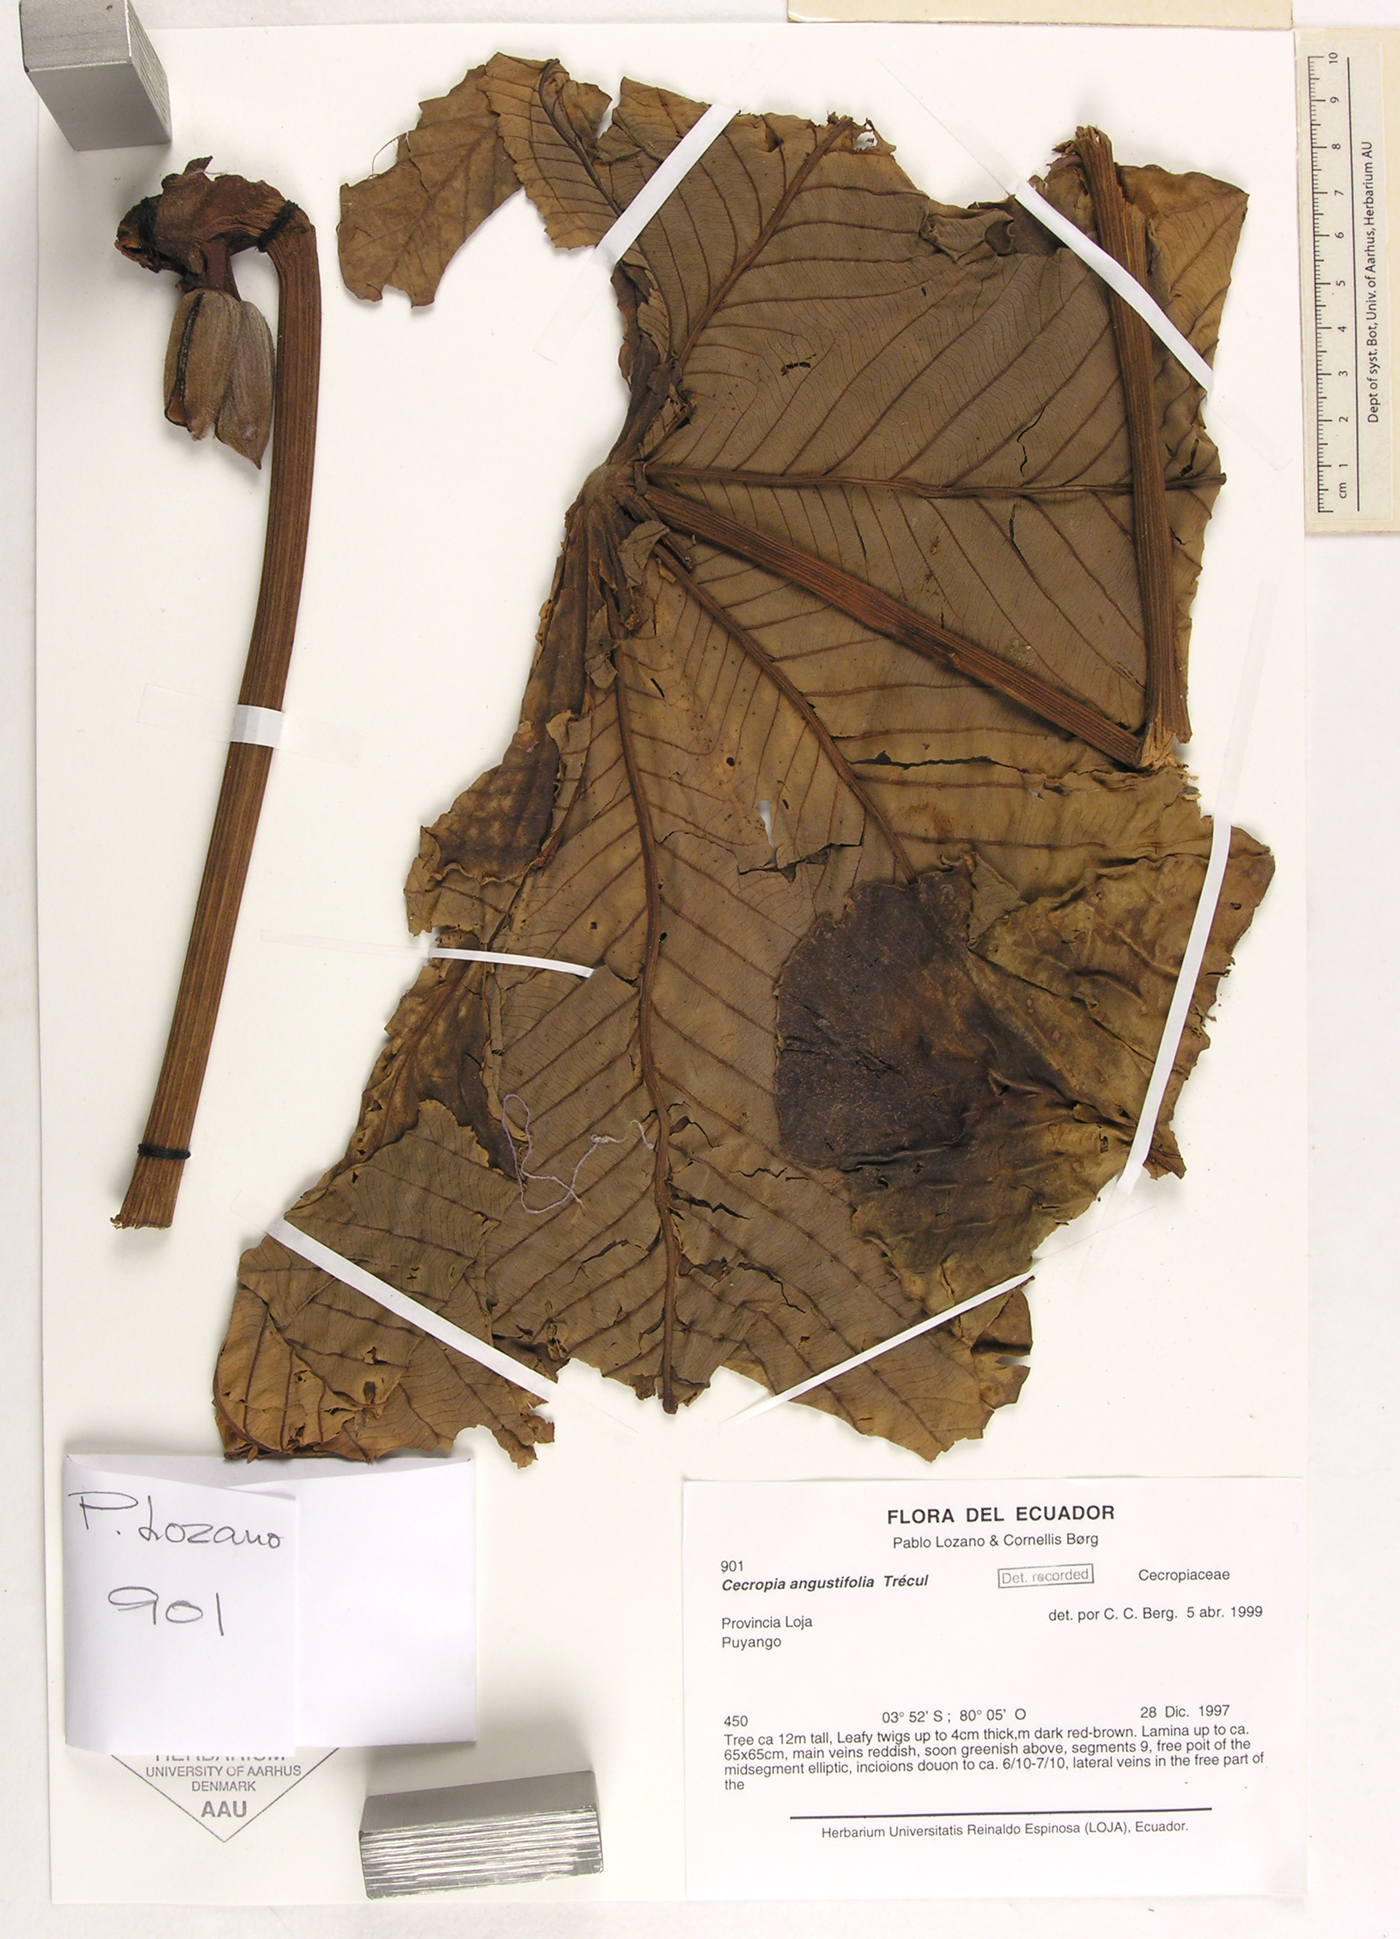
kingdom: Plantae
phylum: Tracheophyta
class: Magnoliopsida
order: Rosales
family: Urticaceae
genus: Cecropia
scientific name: Cecropia angustifolia
